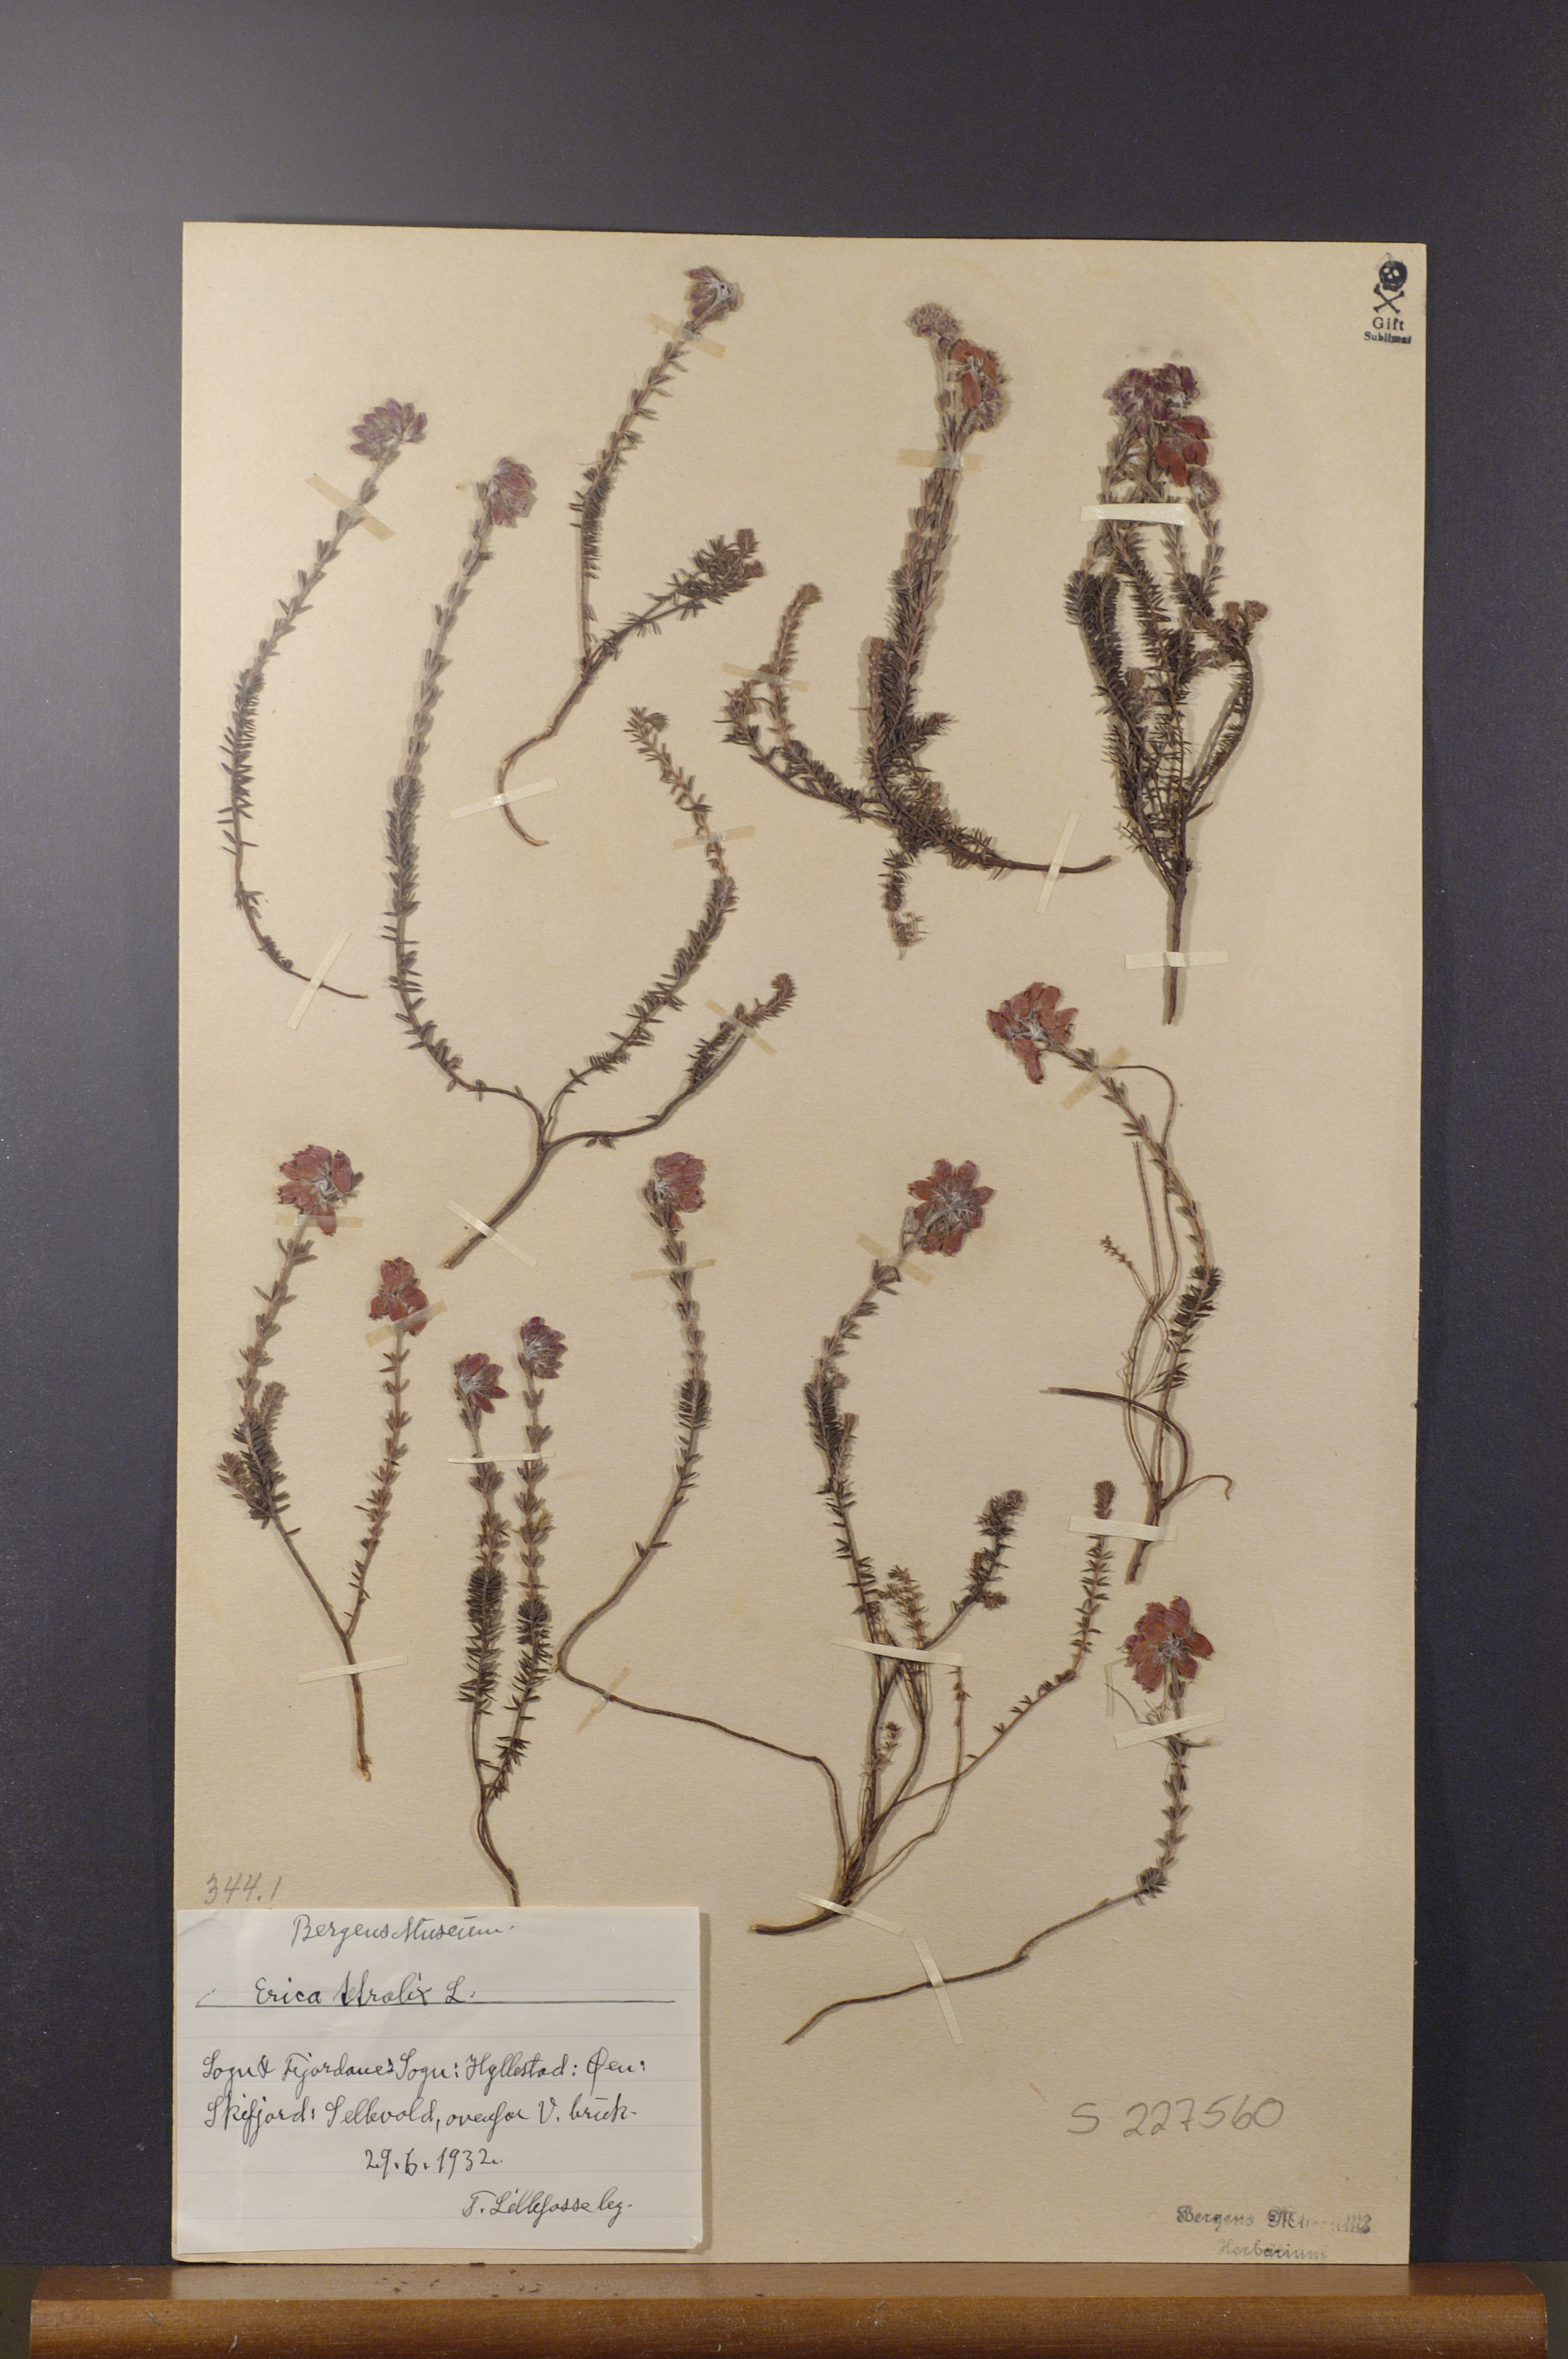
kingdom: Plantae
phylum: Tracheophyta
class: Magnoliopsida
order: Ericales
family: Ericaceae
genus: Erica
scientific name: Erica tetralix
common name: Cross-leaved heath
